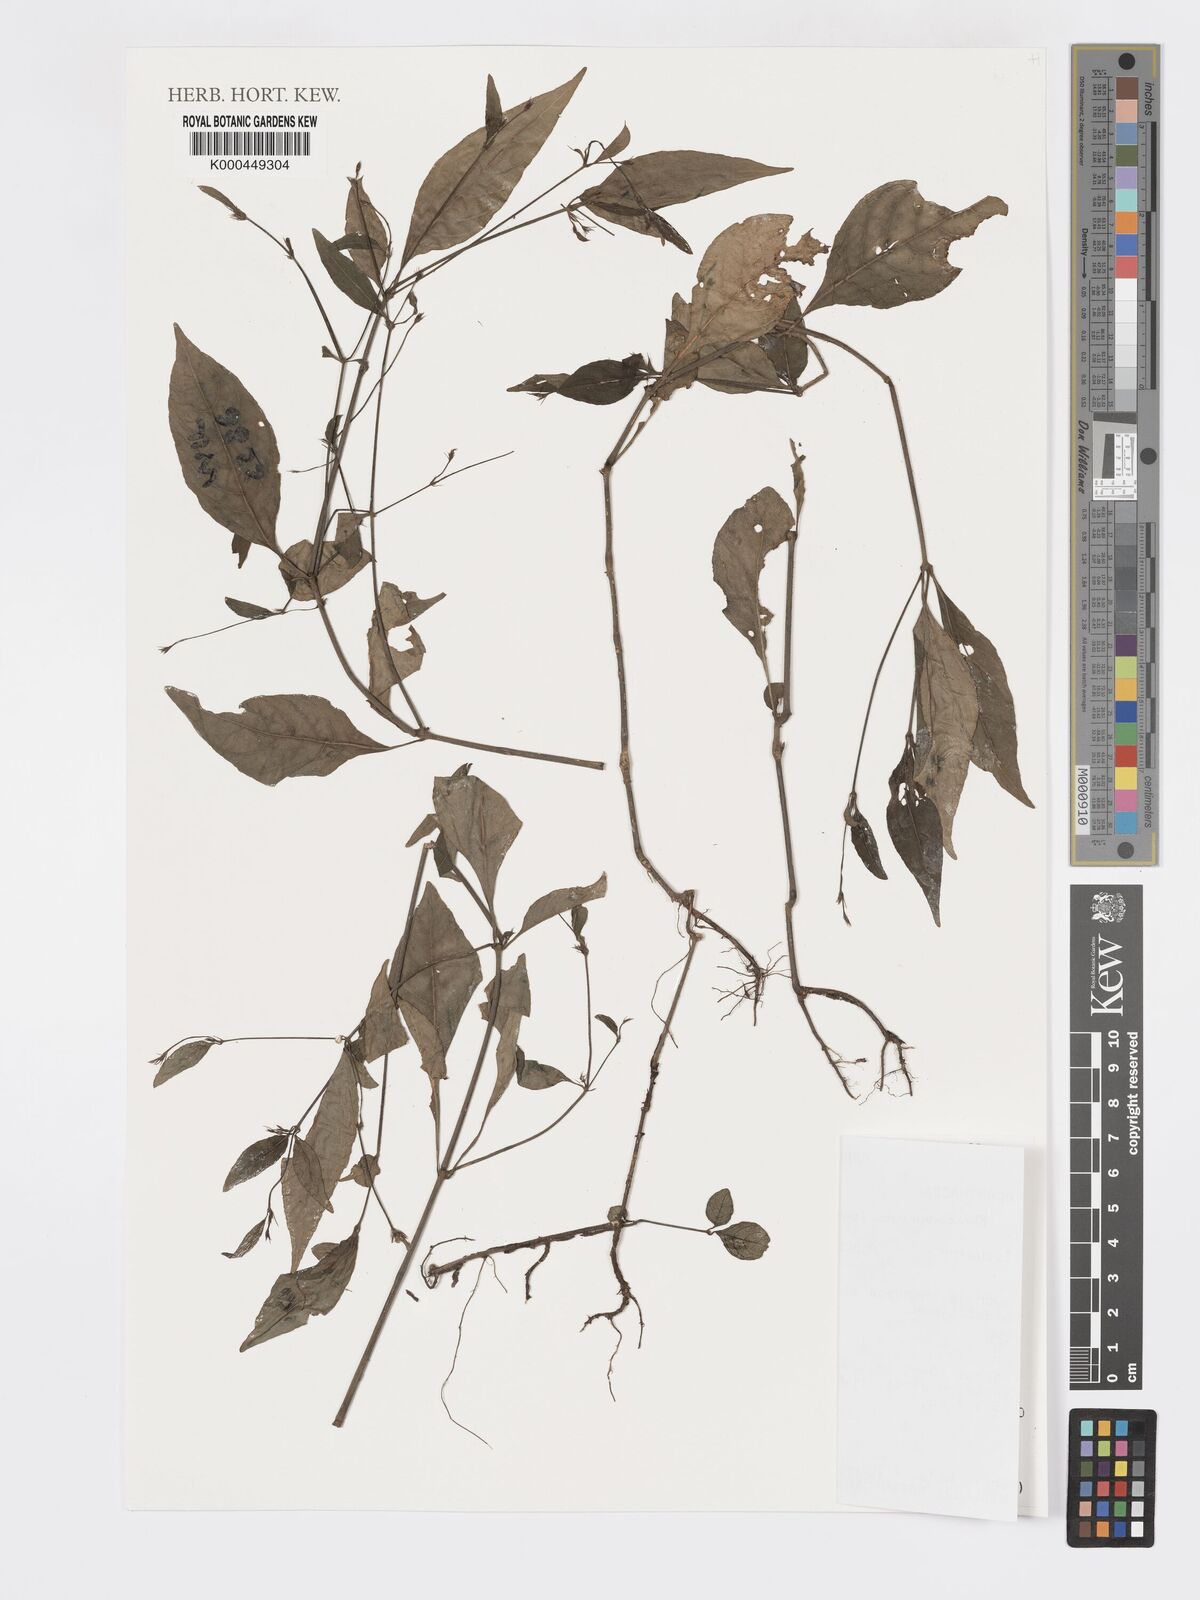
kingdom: Plantae
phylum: Tracheophyta
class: Magnoliopsida
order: Lamiales
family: Acanthaceae
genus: Rhinacanthus
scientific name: Rhinacanthus virens
